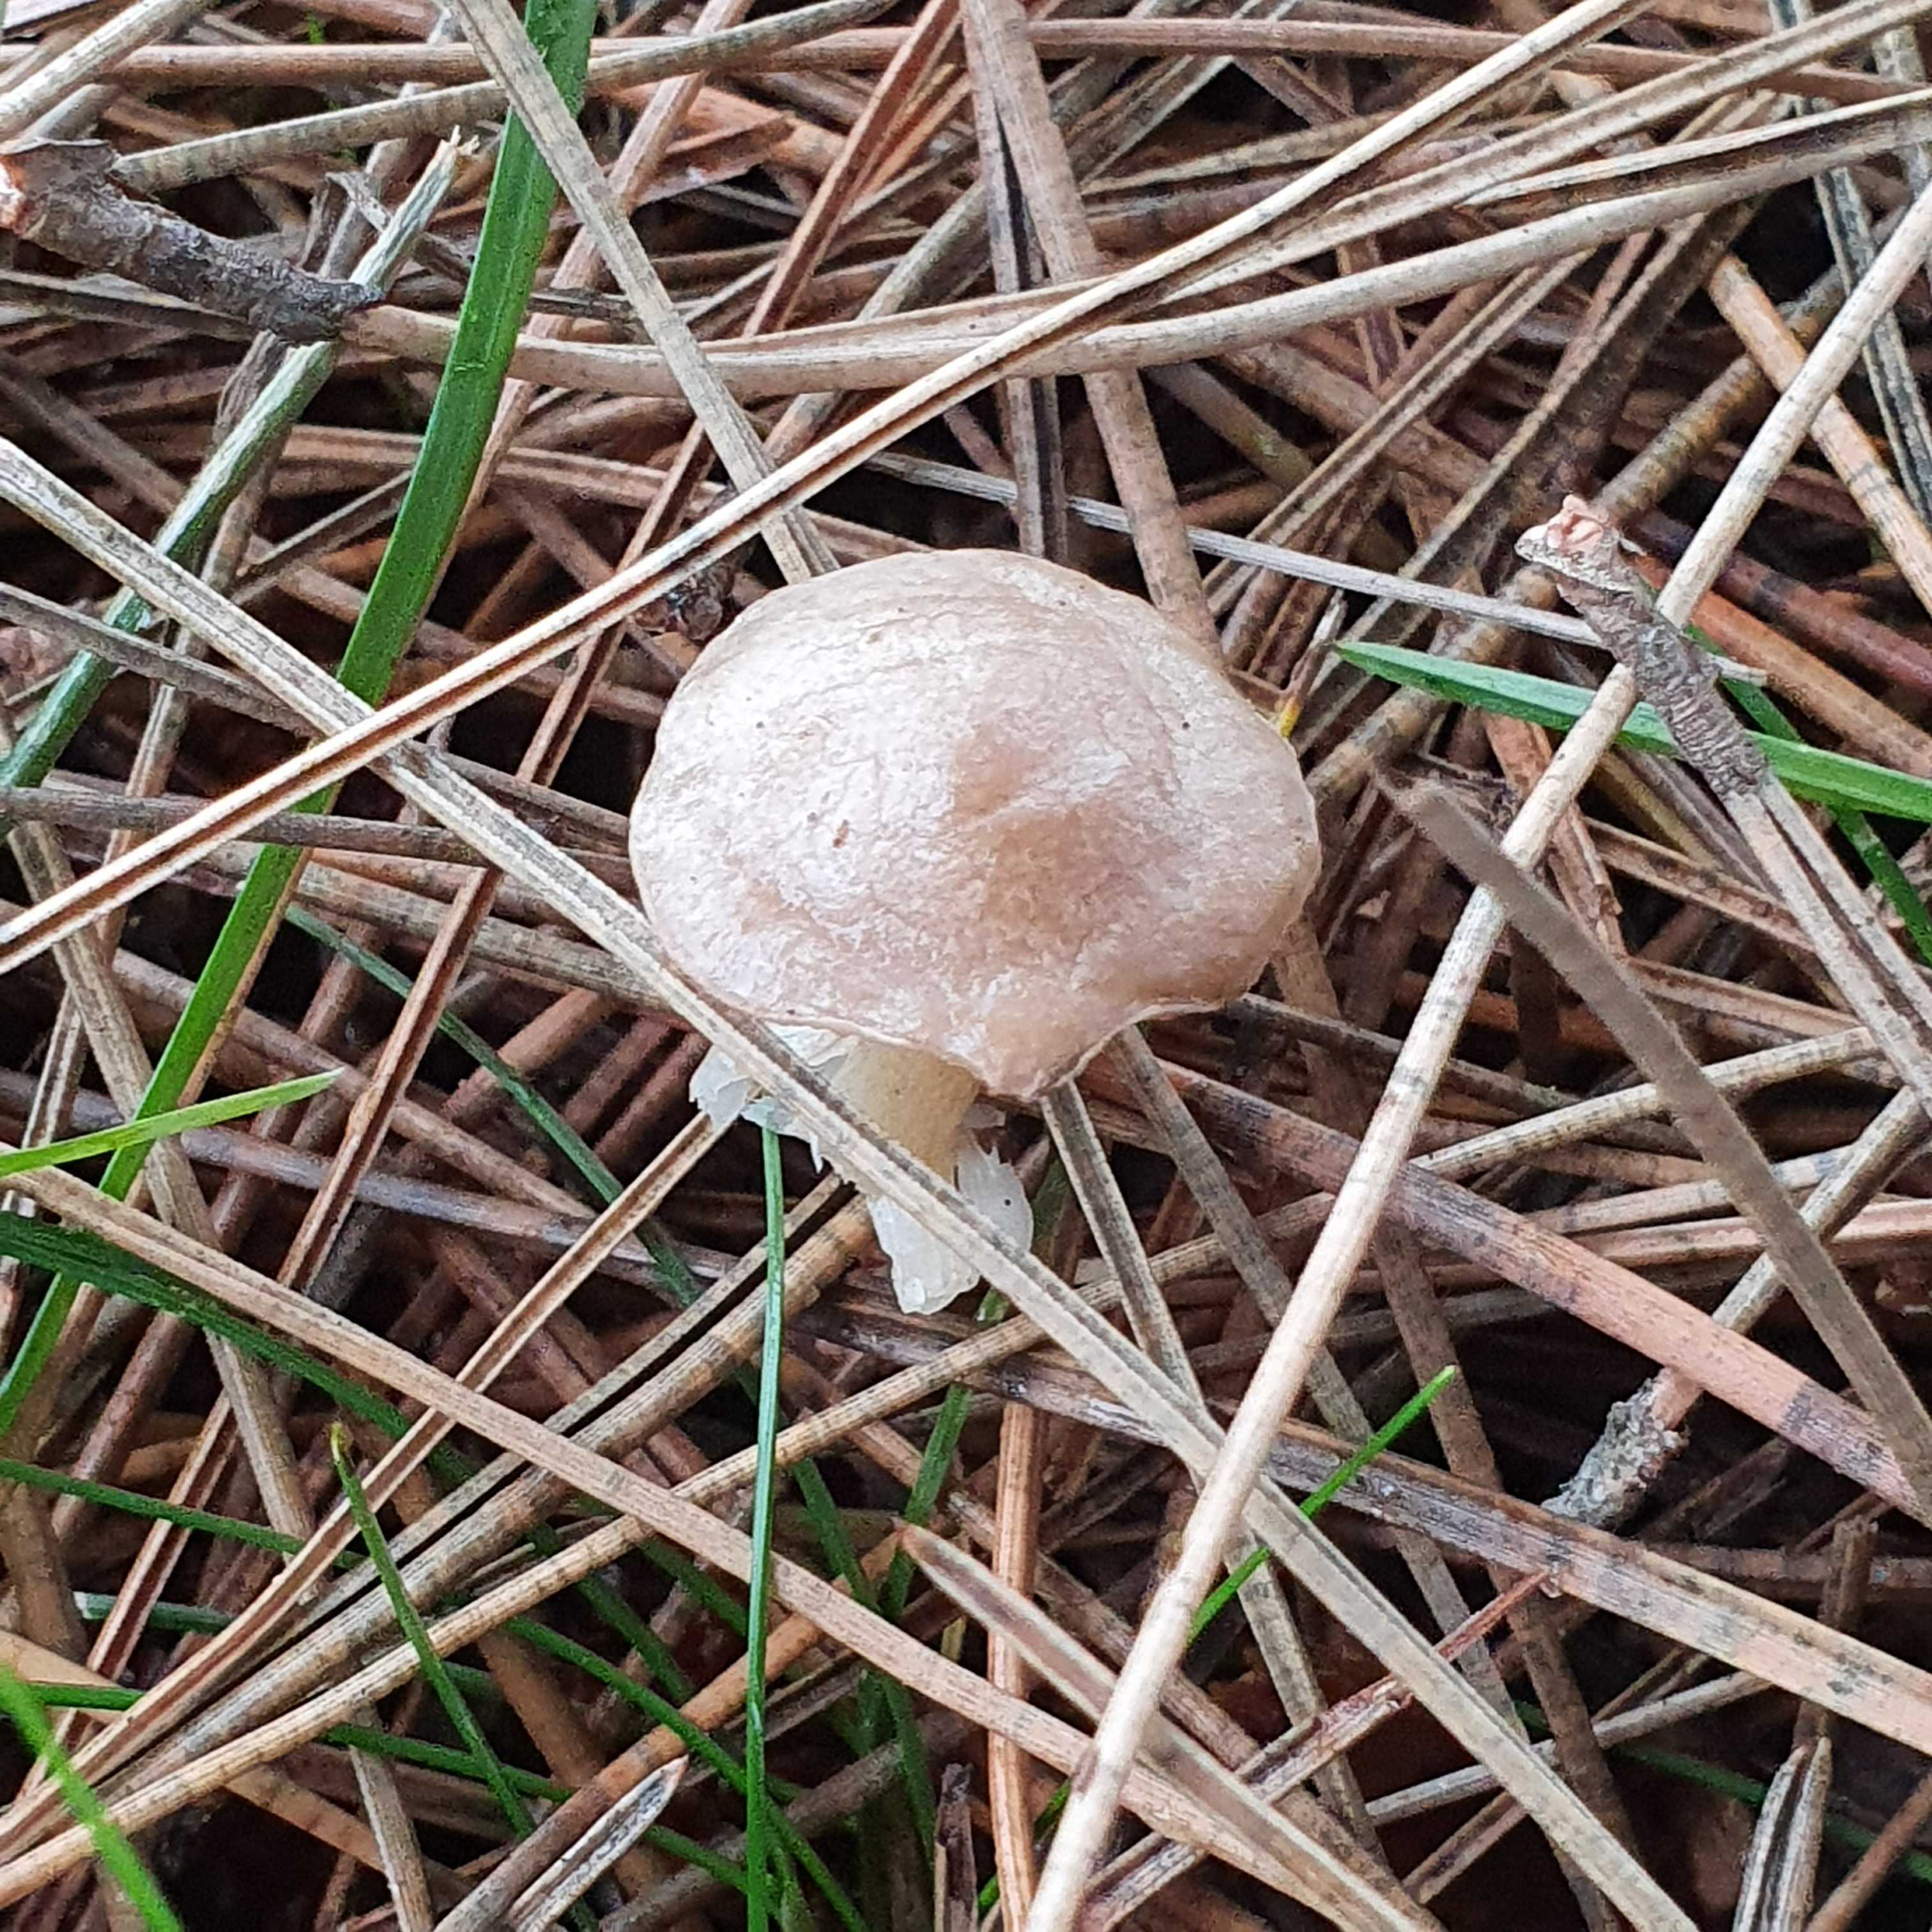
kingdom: Fungi
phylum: Basidiomycota
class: Agaricomycetes
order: Agaricales
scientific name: Agaricales
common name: champignonordenen
